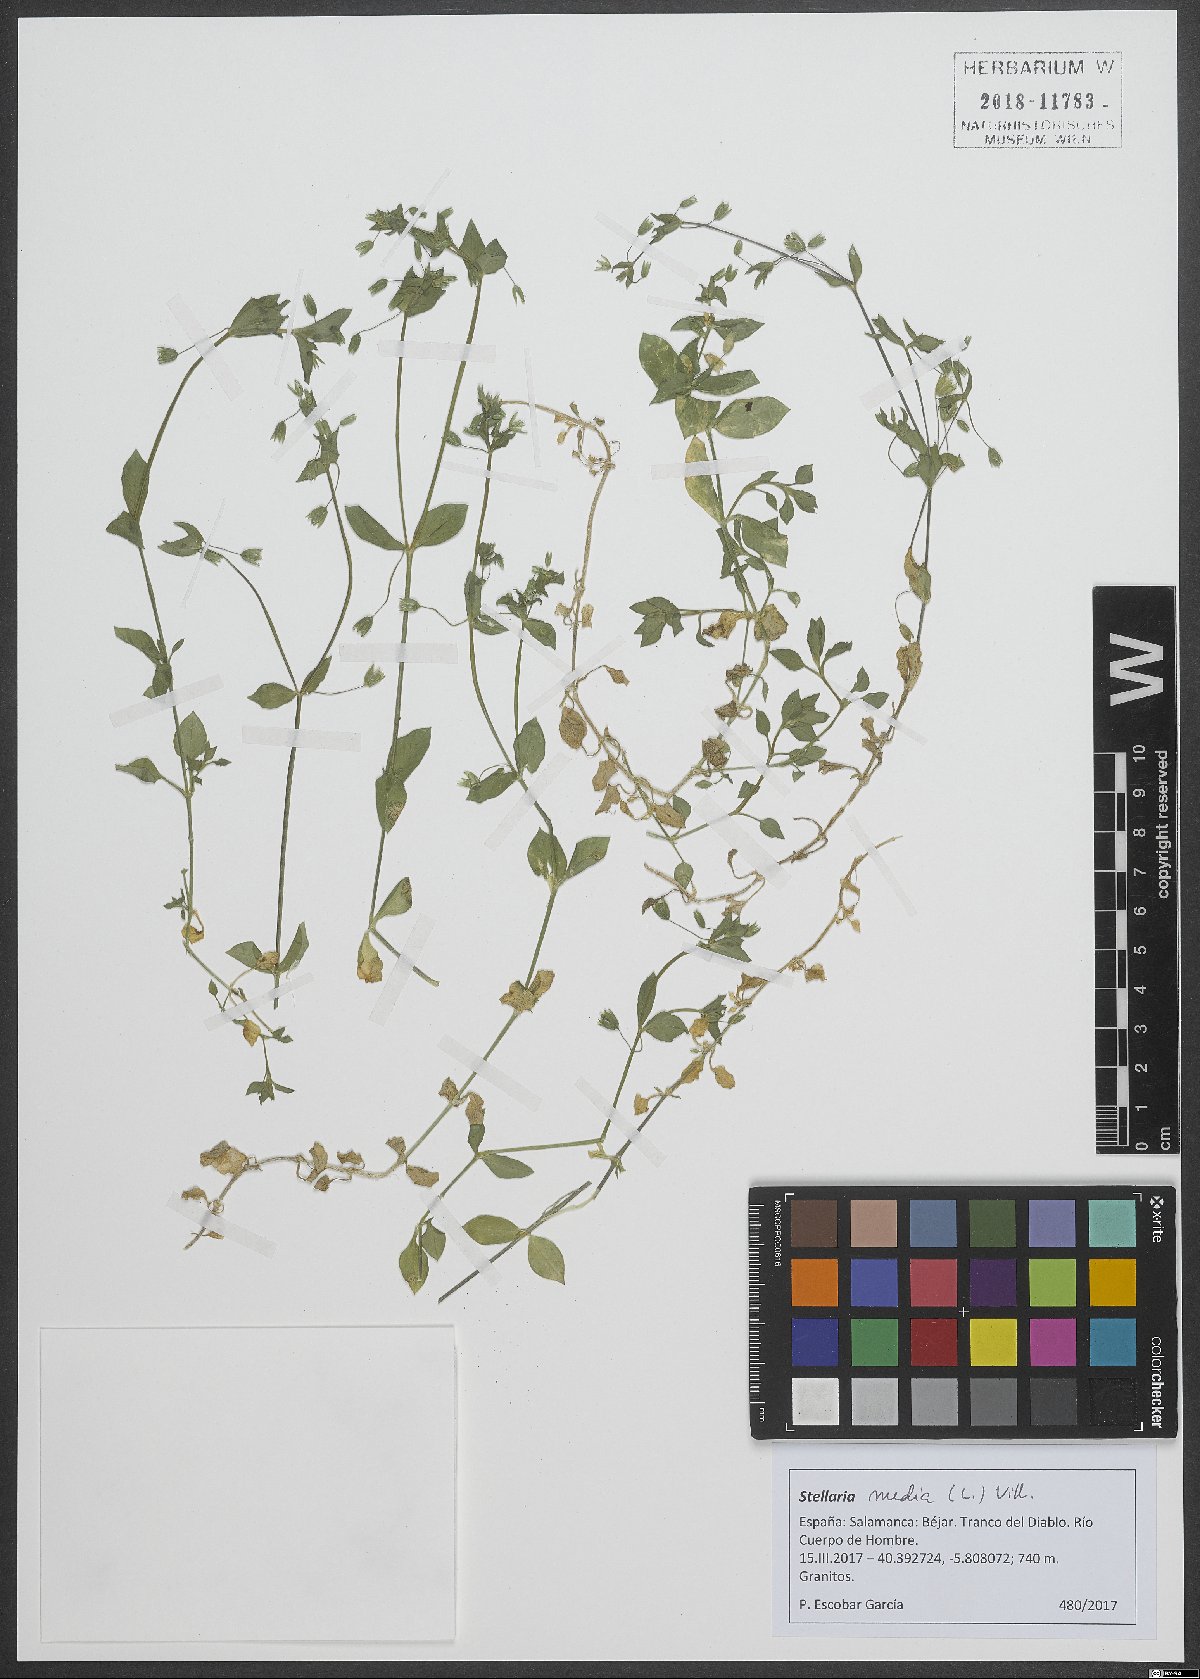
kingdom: Plantae
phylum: Tracheophyta
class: Magnoliopsida
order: Caryophyllales
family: Caryophyllaceae
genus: Stellaria
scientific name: Stellaria media
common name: Common chickweed
